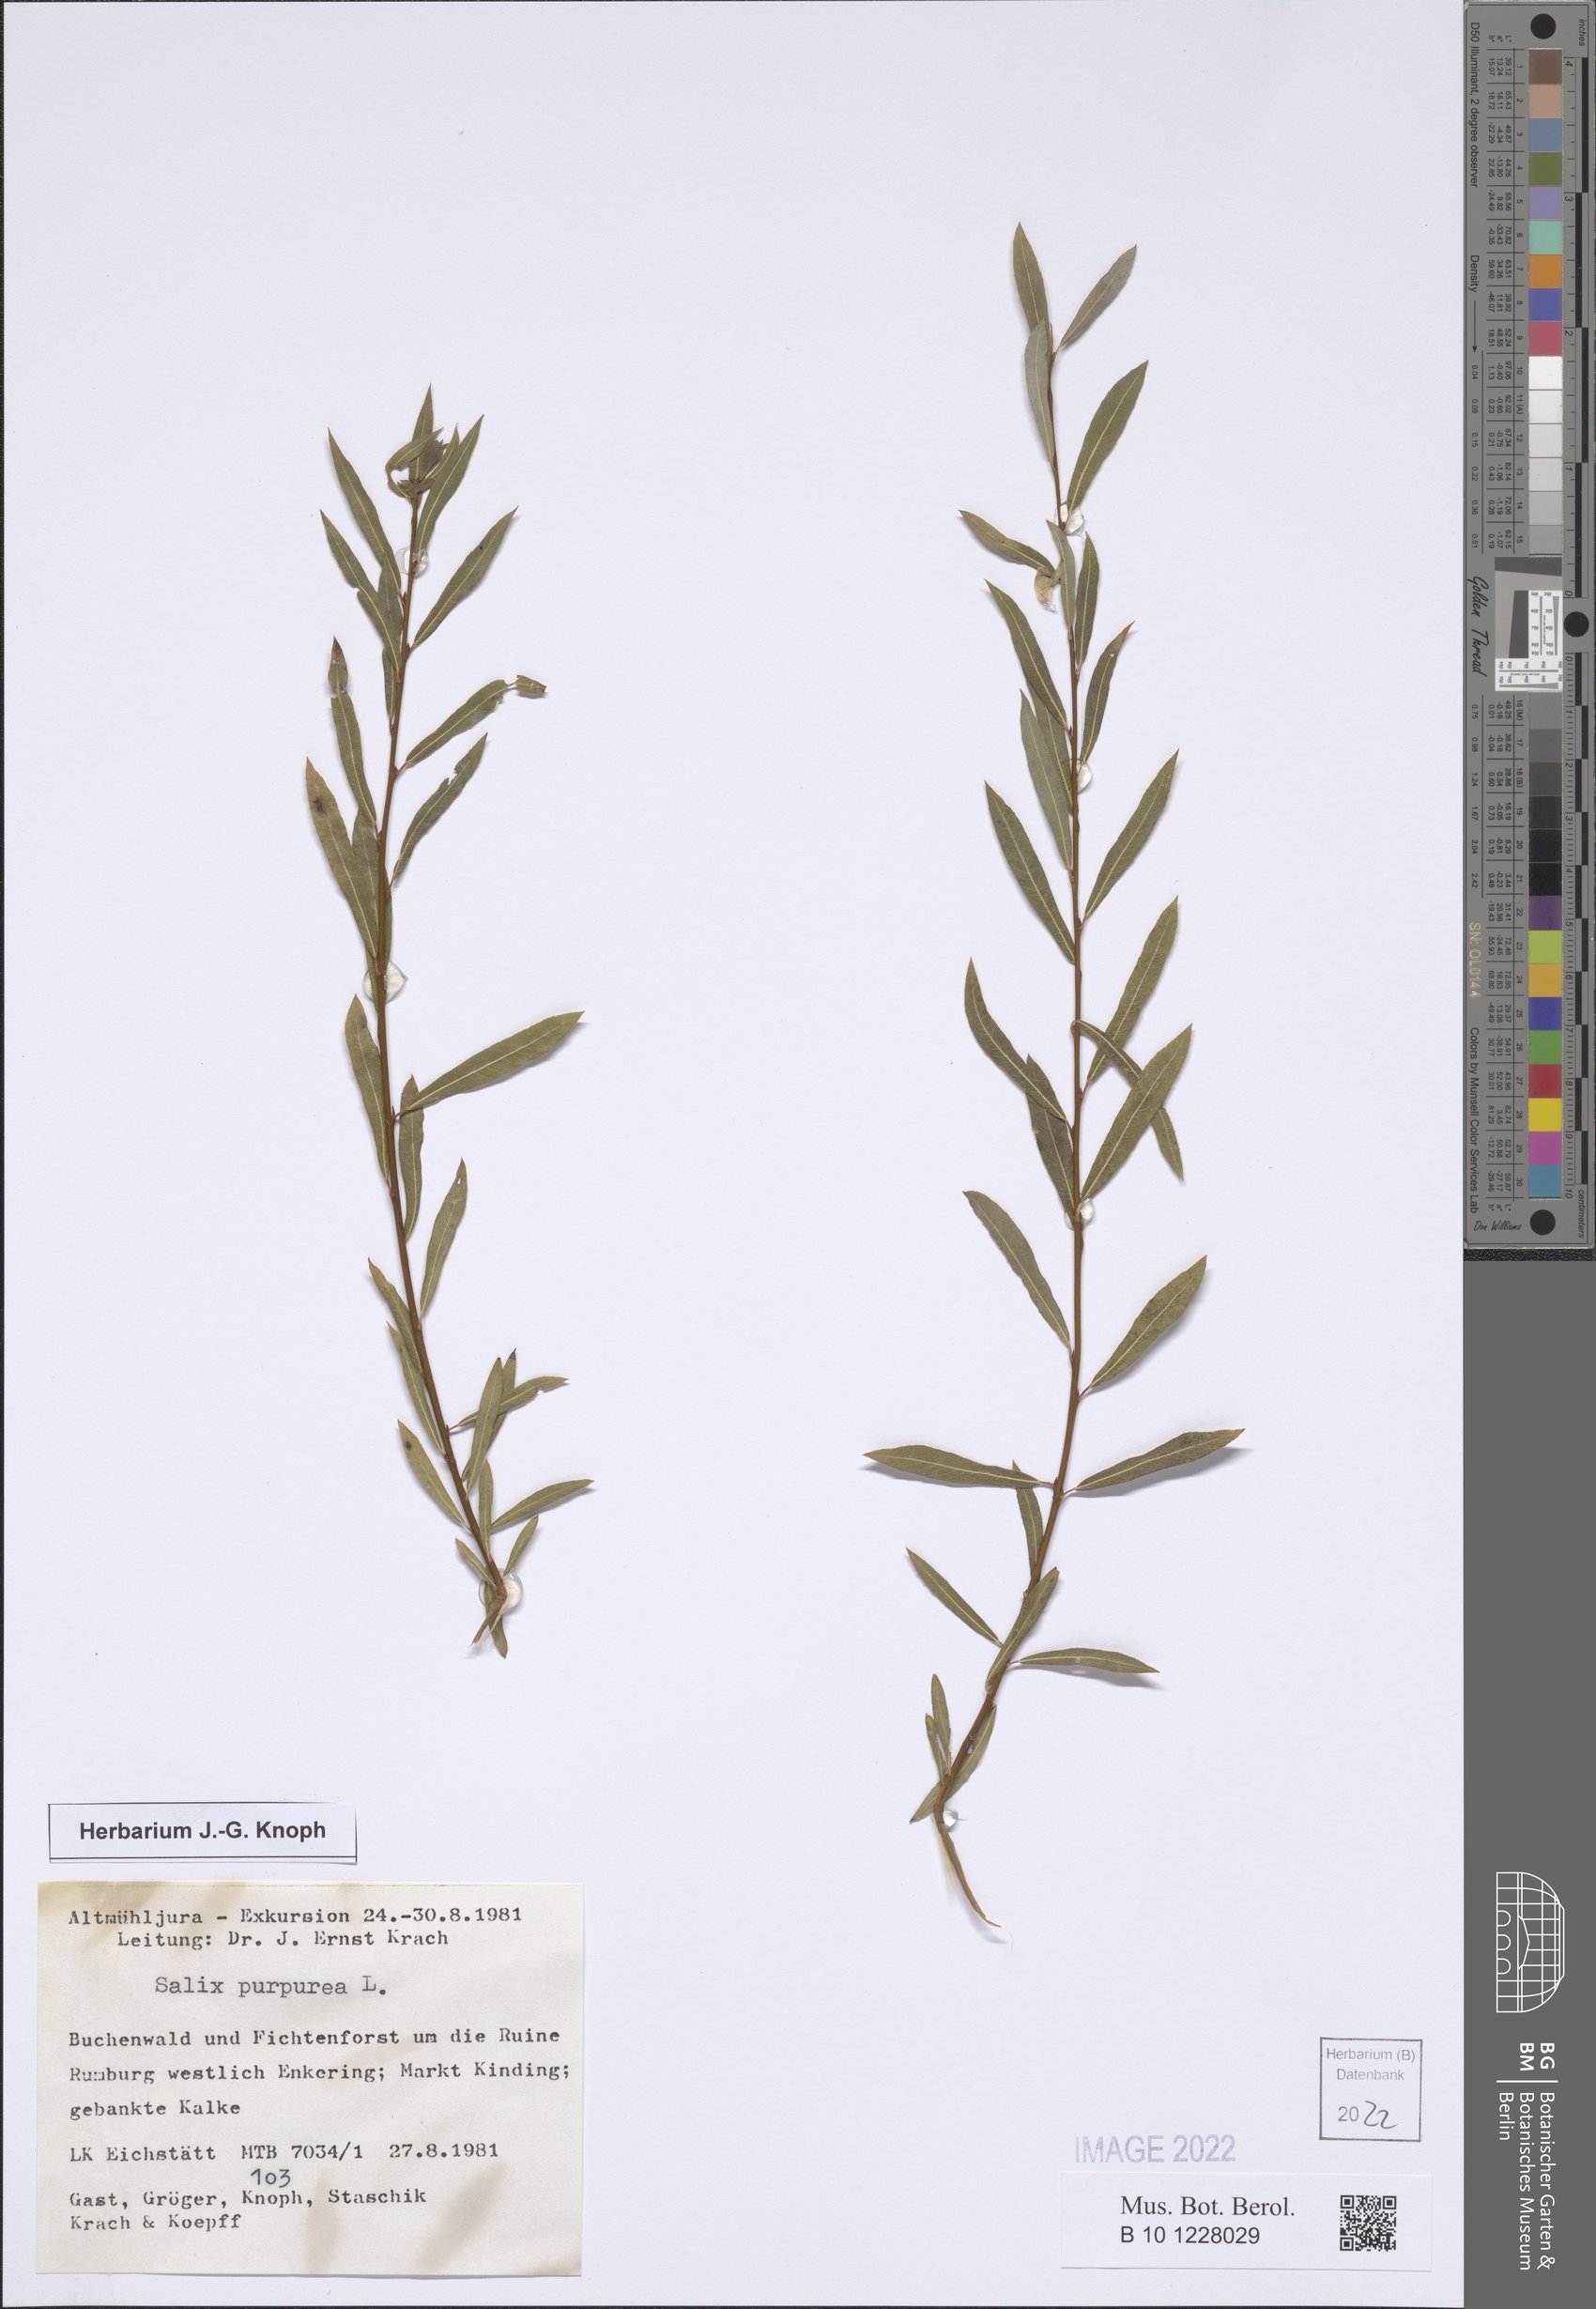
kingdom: Plantae
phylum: Tracheophyta
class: Magnoliopsida
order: Malpighiales
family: Salicaceae
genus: Salix
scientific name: Salix purpurea
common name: Purple willow
